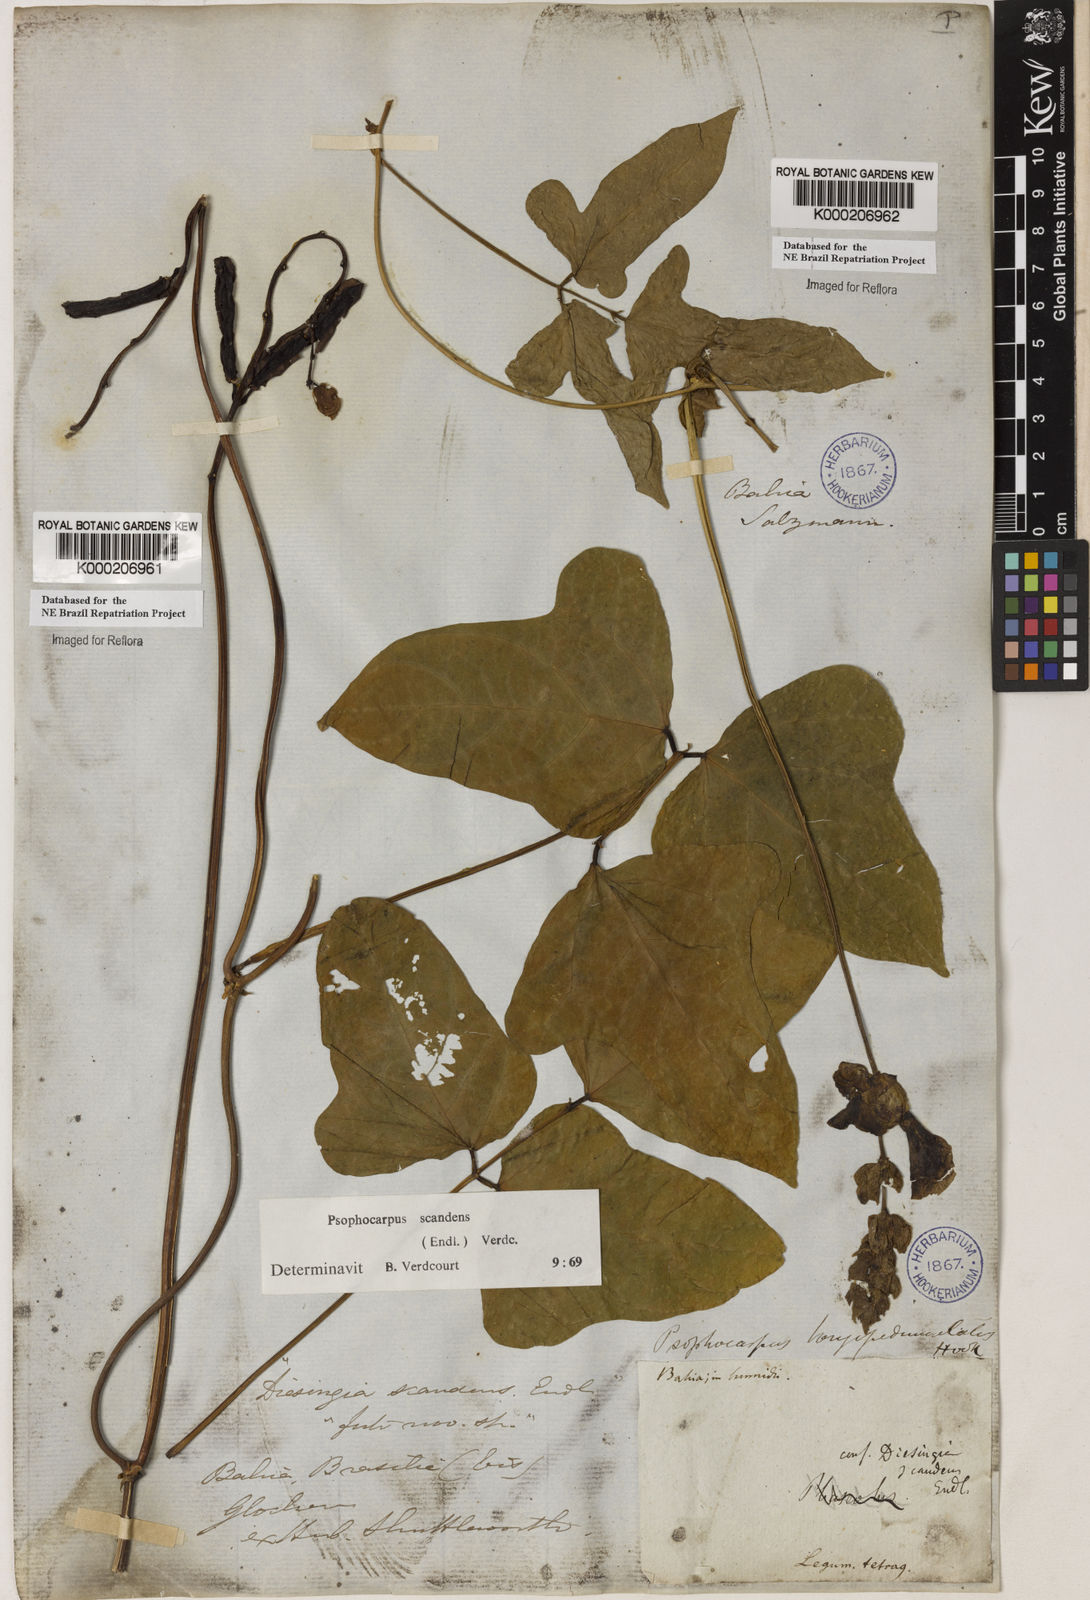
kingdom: Plantae
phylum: Tracheophyta
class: Magnoliopsida
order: Fabales
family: Fabaceae
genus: Psophocarpus
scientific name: Psophocarpus palustris
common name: African winged-bean
